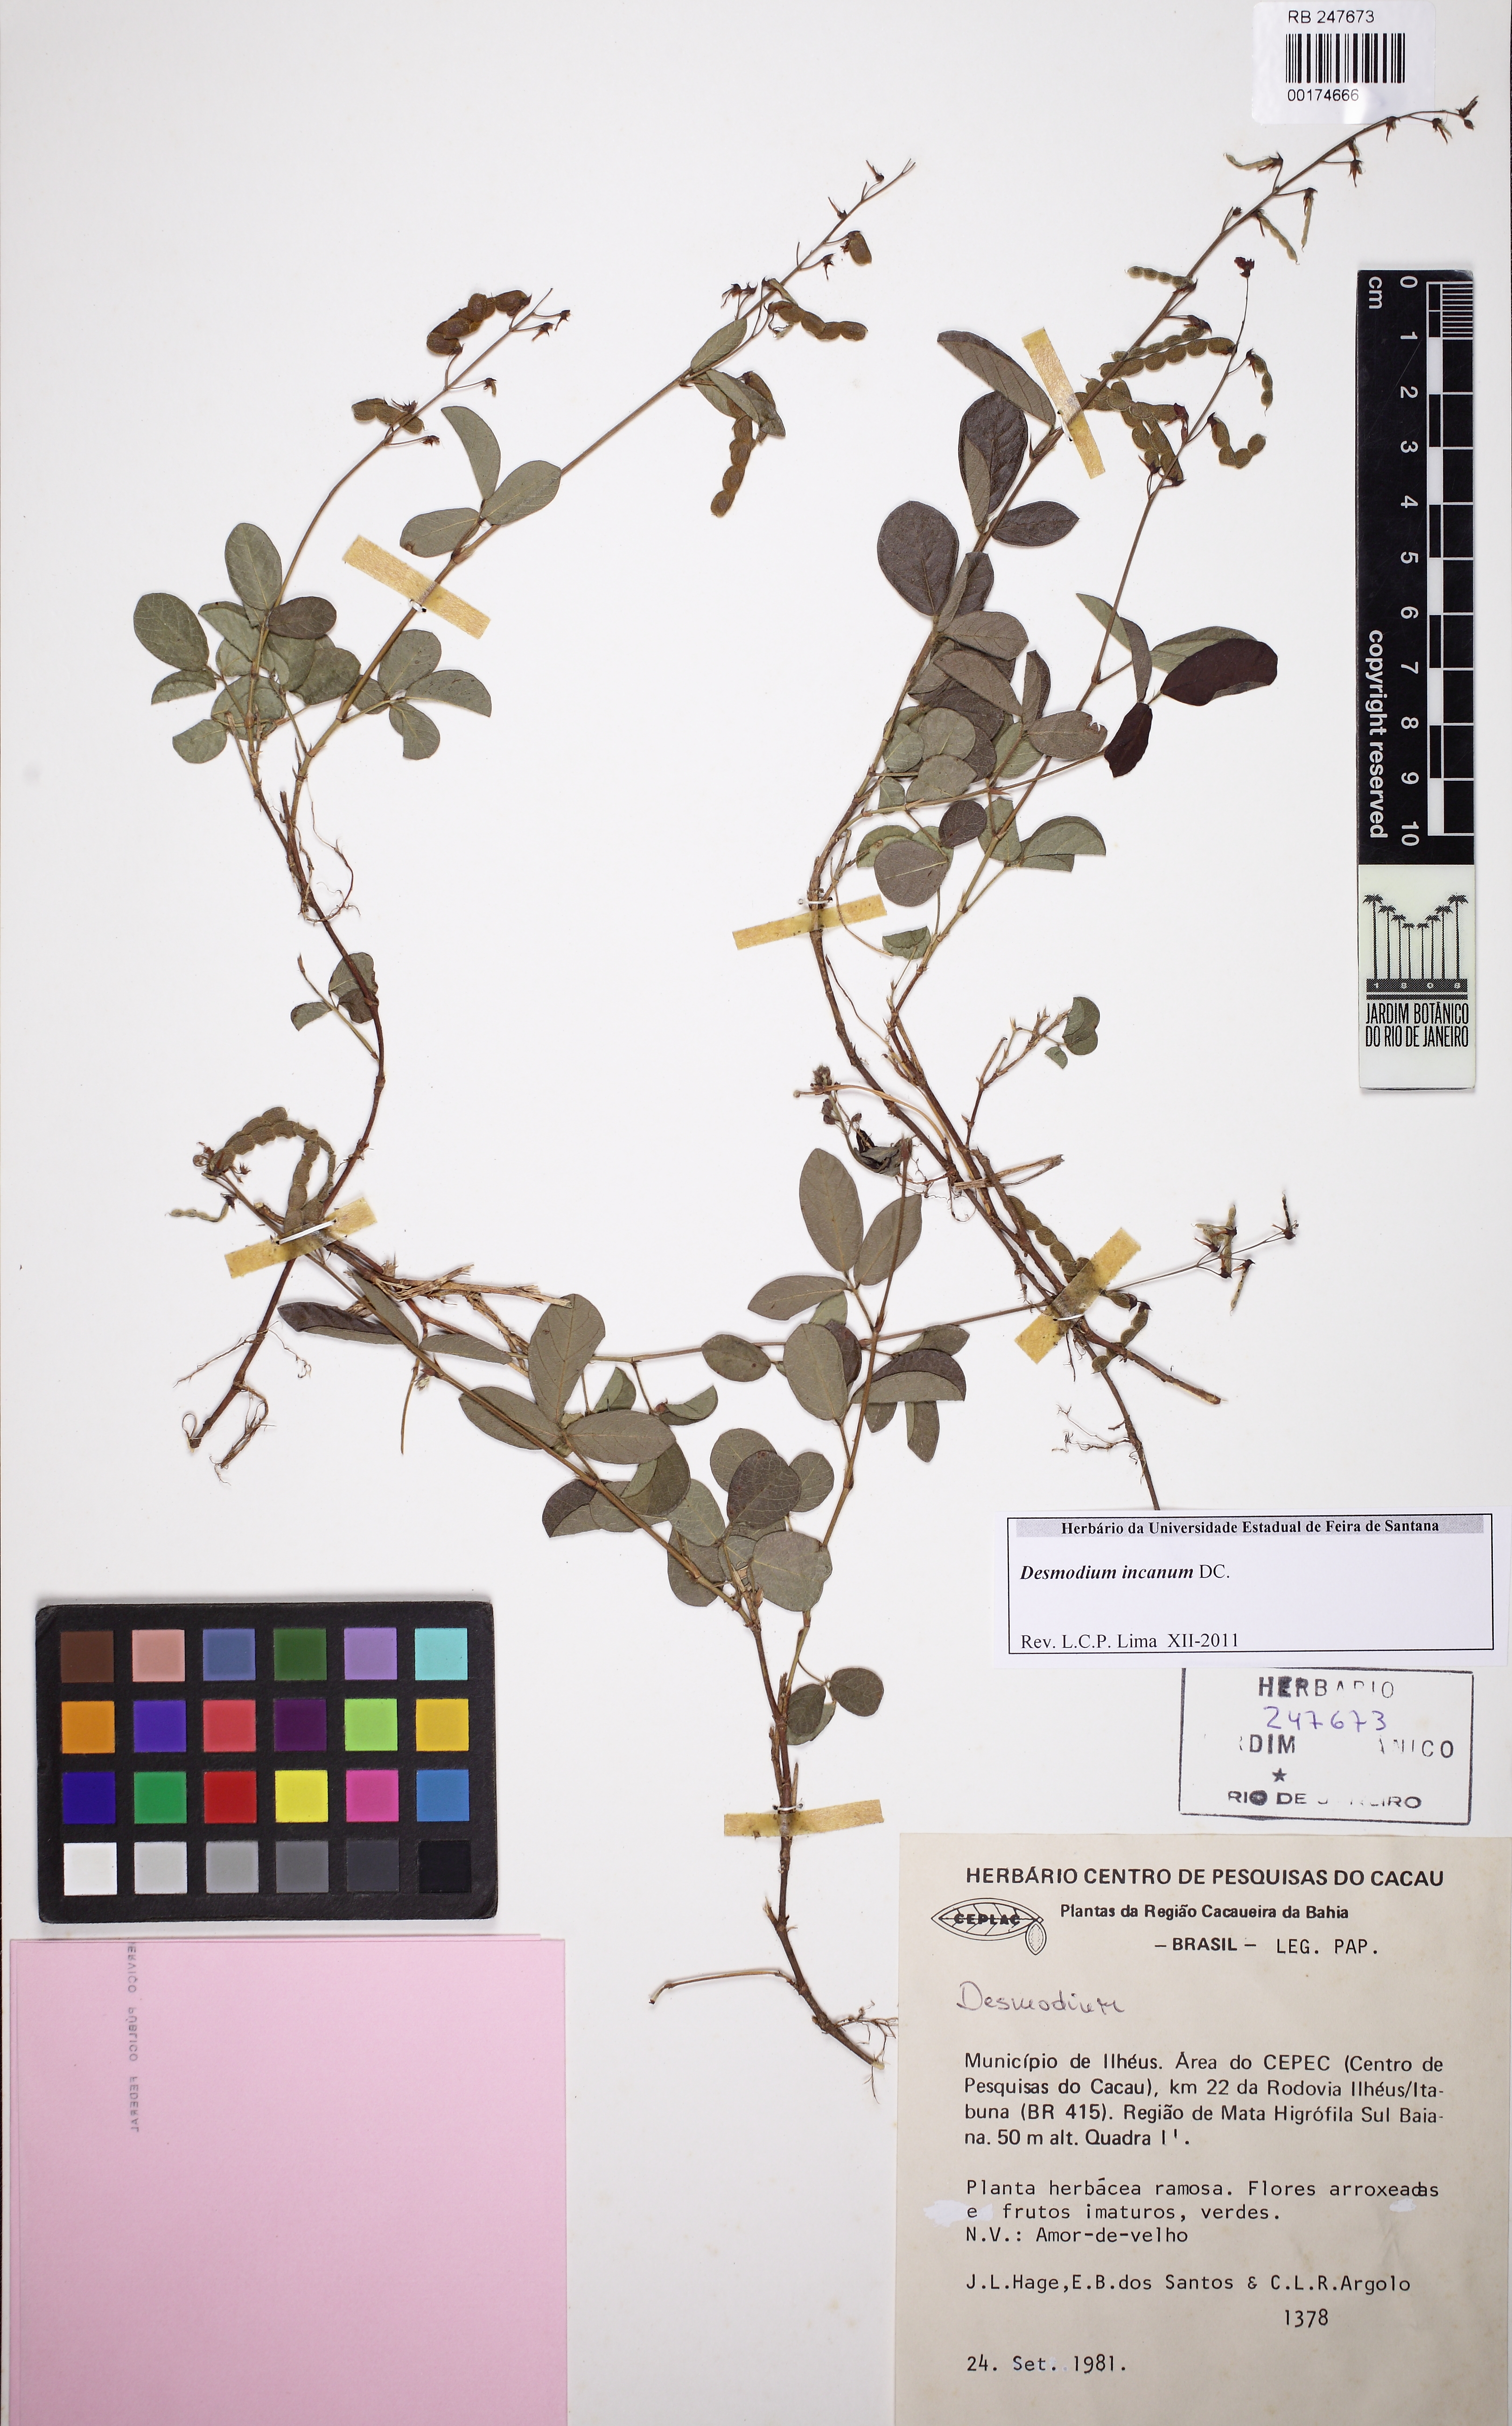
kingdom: Plantae
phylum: Tracheophyta
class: Magnoliopsida
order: Fabales
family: Fabaceae
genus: Desmodium
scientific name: Desmodium incanum
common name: Tickclover
